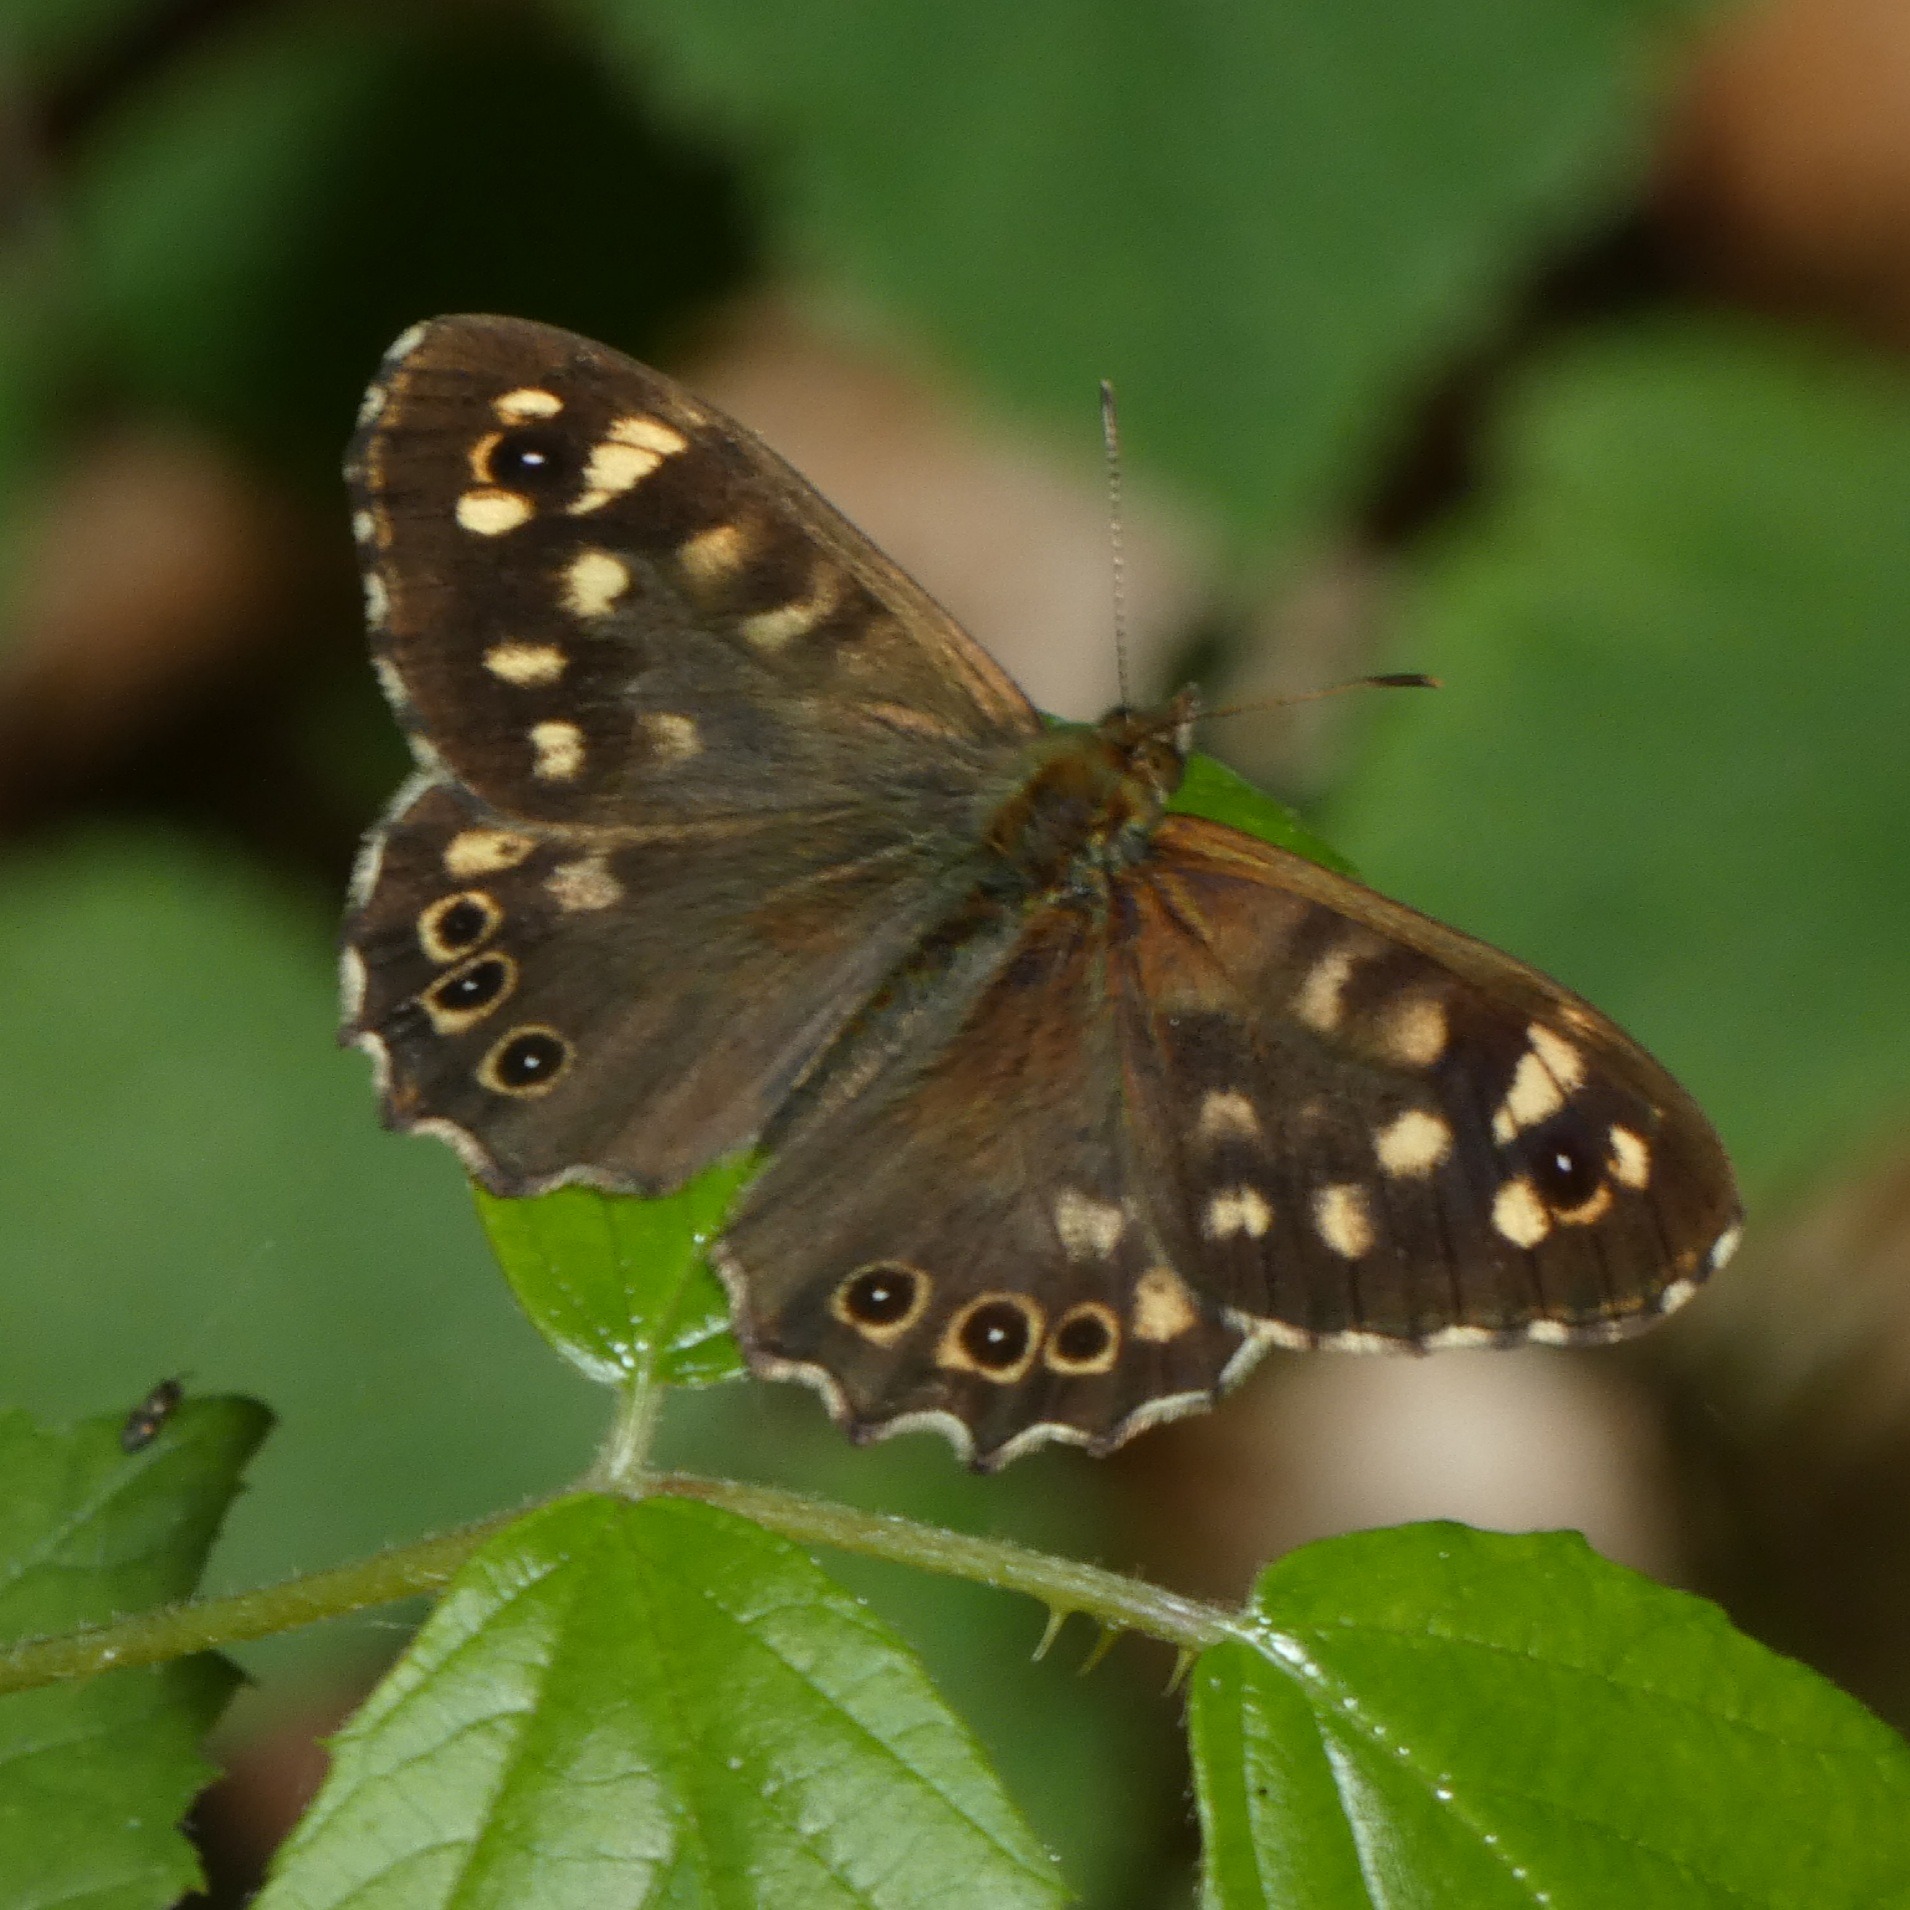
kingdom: Animalia
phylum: Arthropoda
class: Insecta
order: Lepidoptera
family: Nymphalidae
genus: Pararge
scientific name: Pararge aegeria
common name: Skovrandøje
